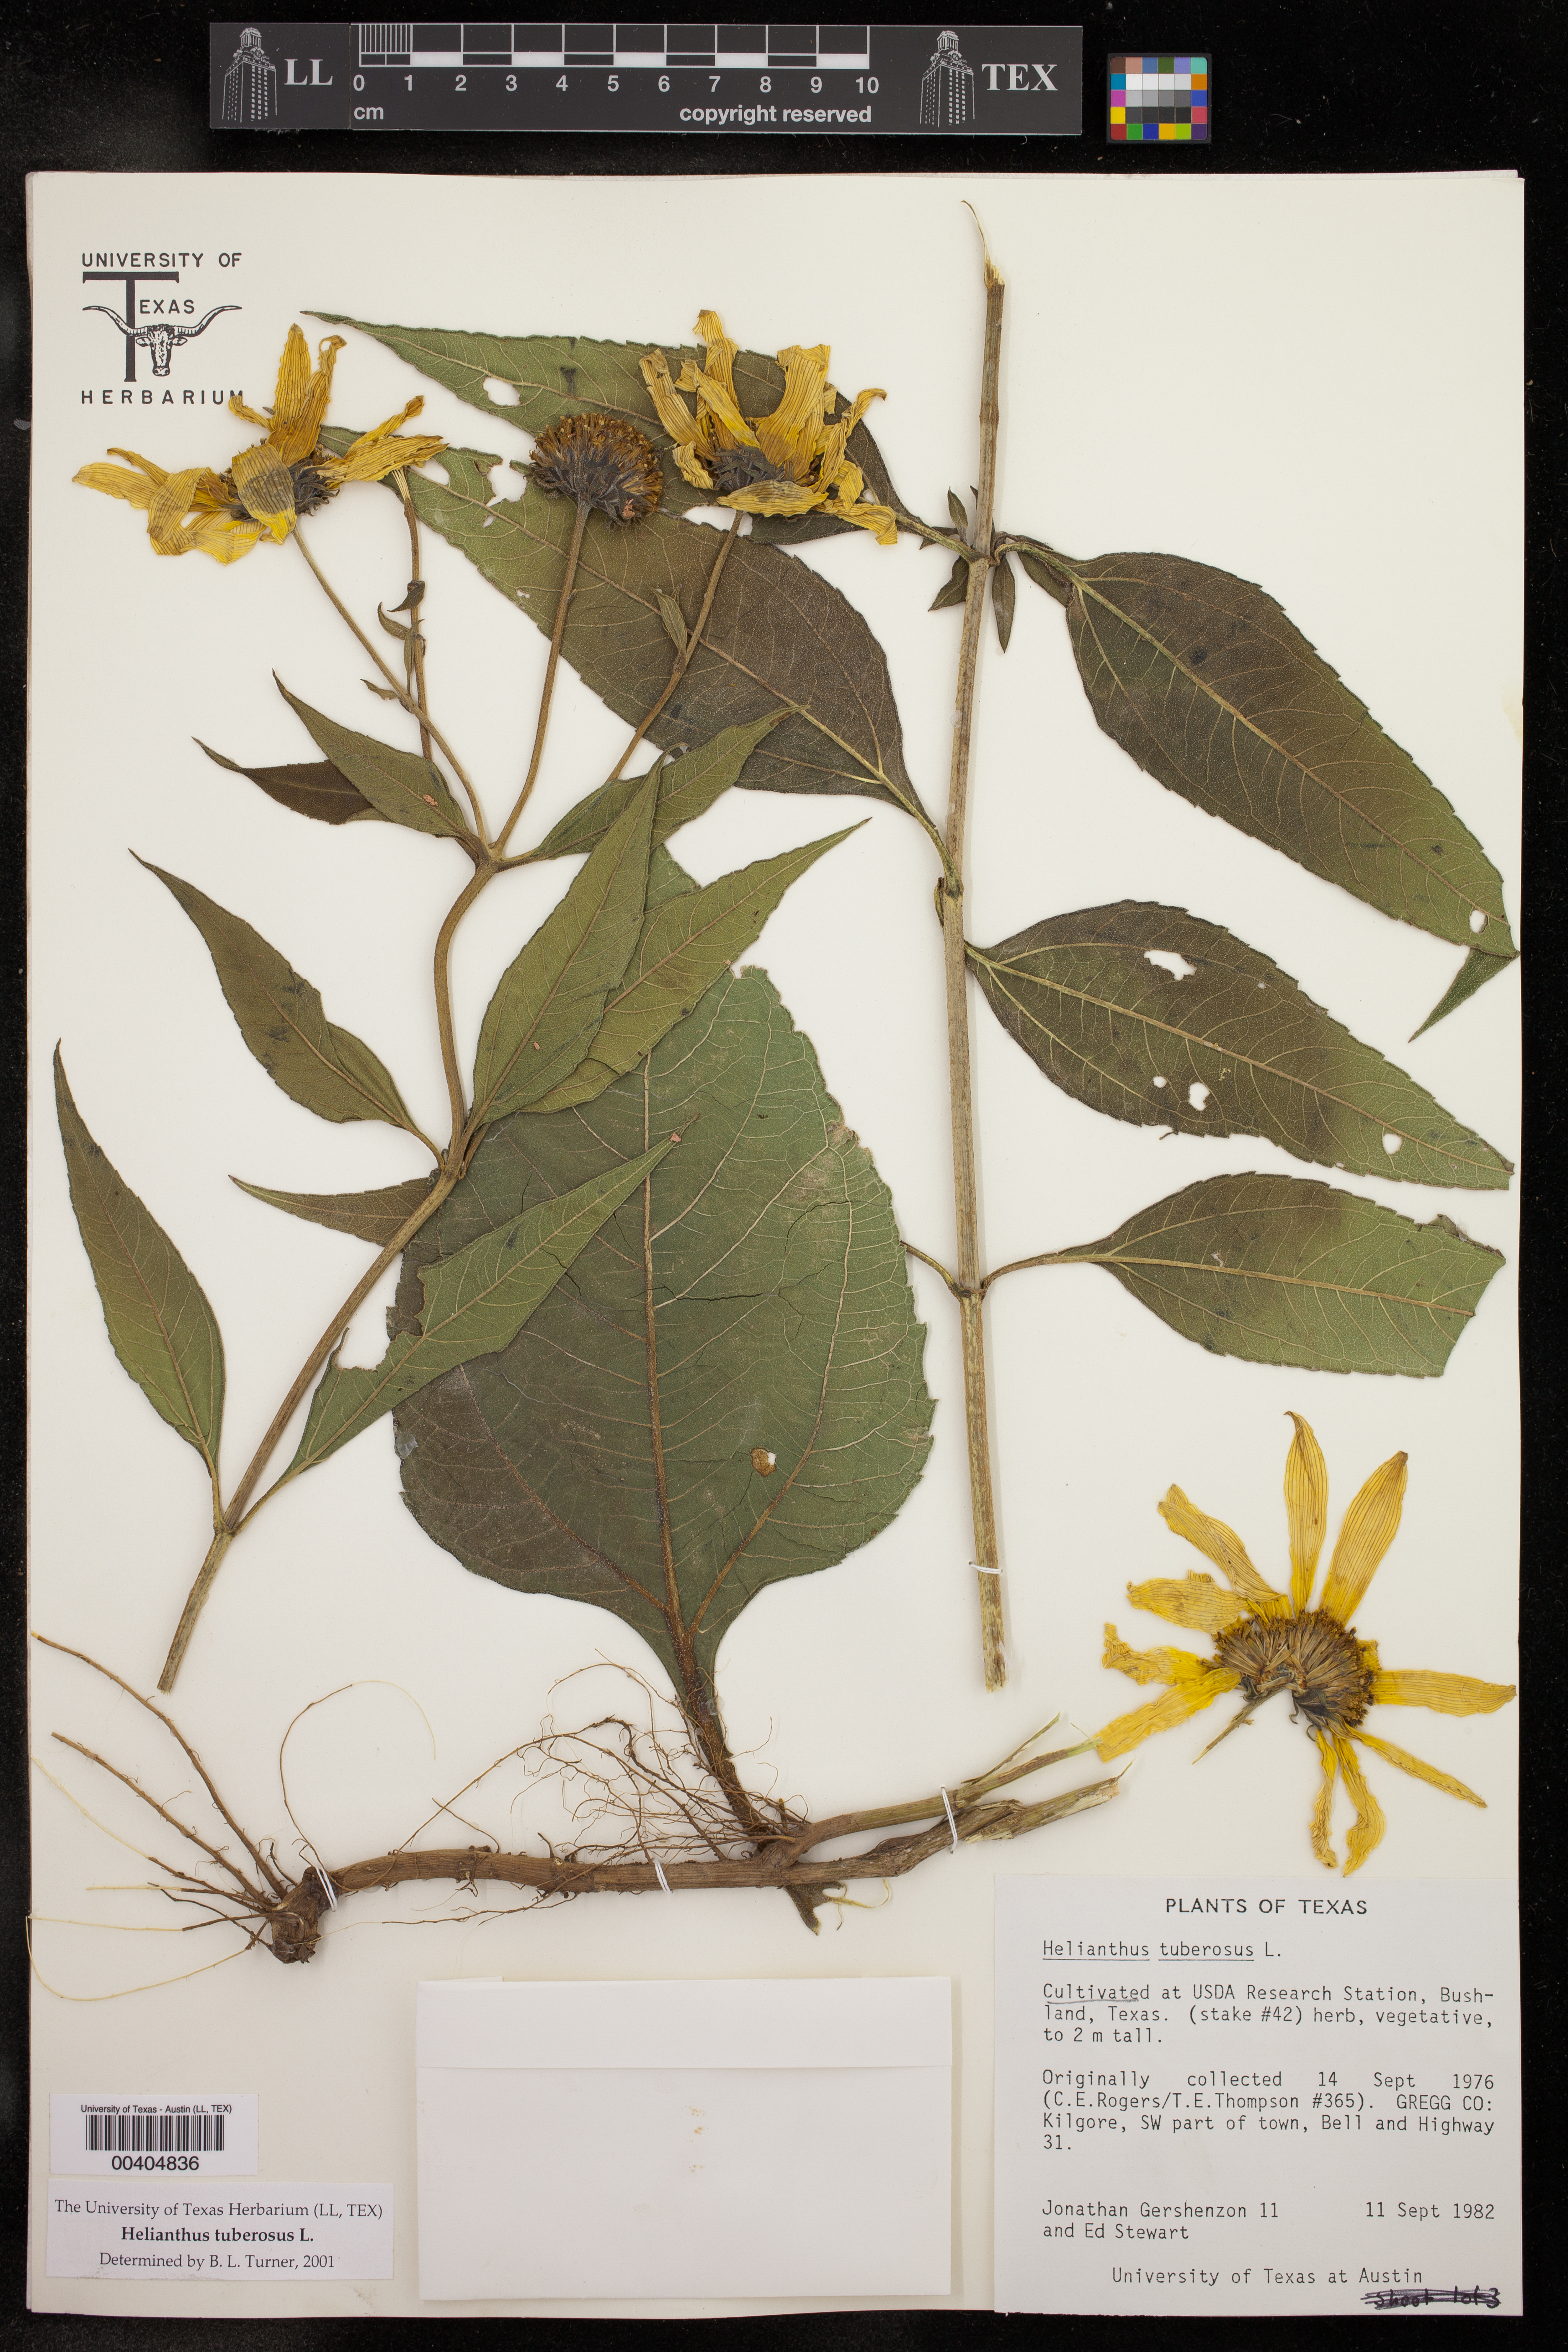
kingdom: Plantae
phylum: Tracheophyta
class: Magnoliopsida
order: Asterales
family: Asteraceae
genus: Helianthus
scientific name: Helianthus tuberosus
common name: Jerusalem artichoke
